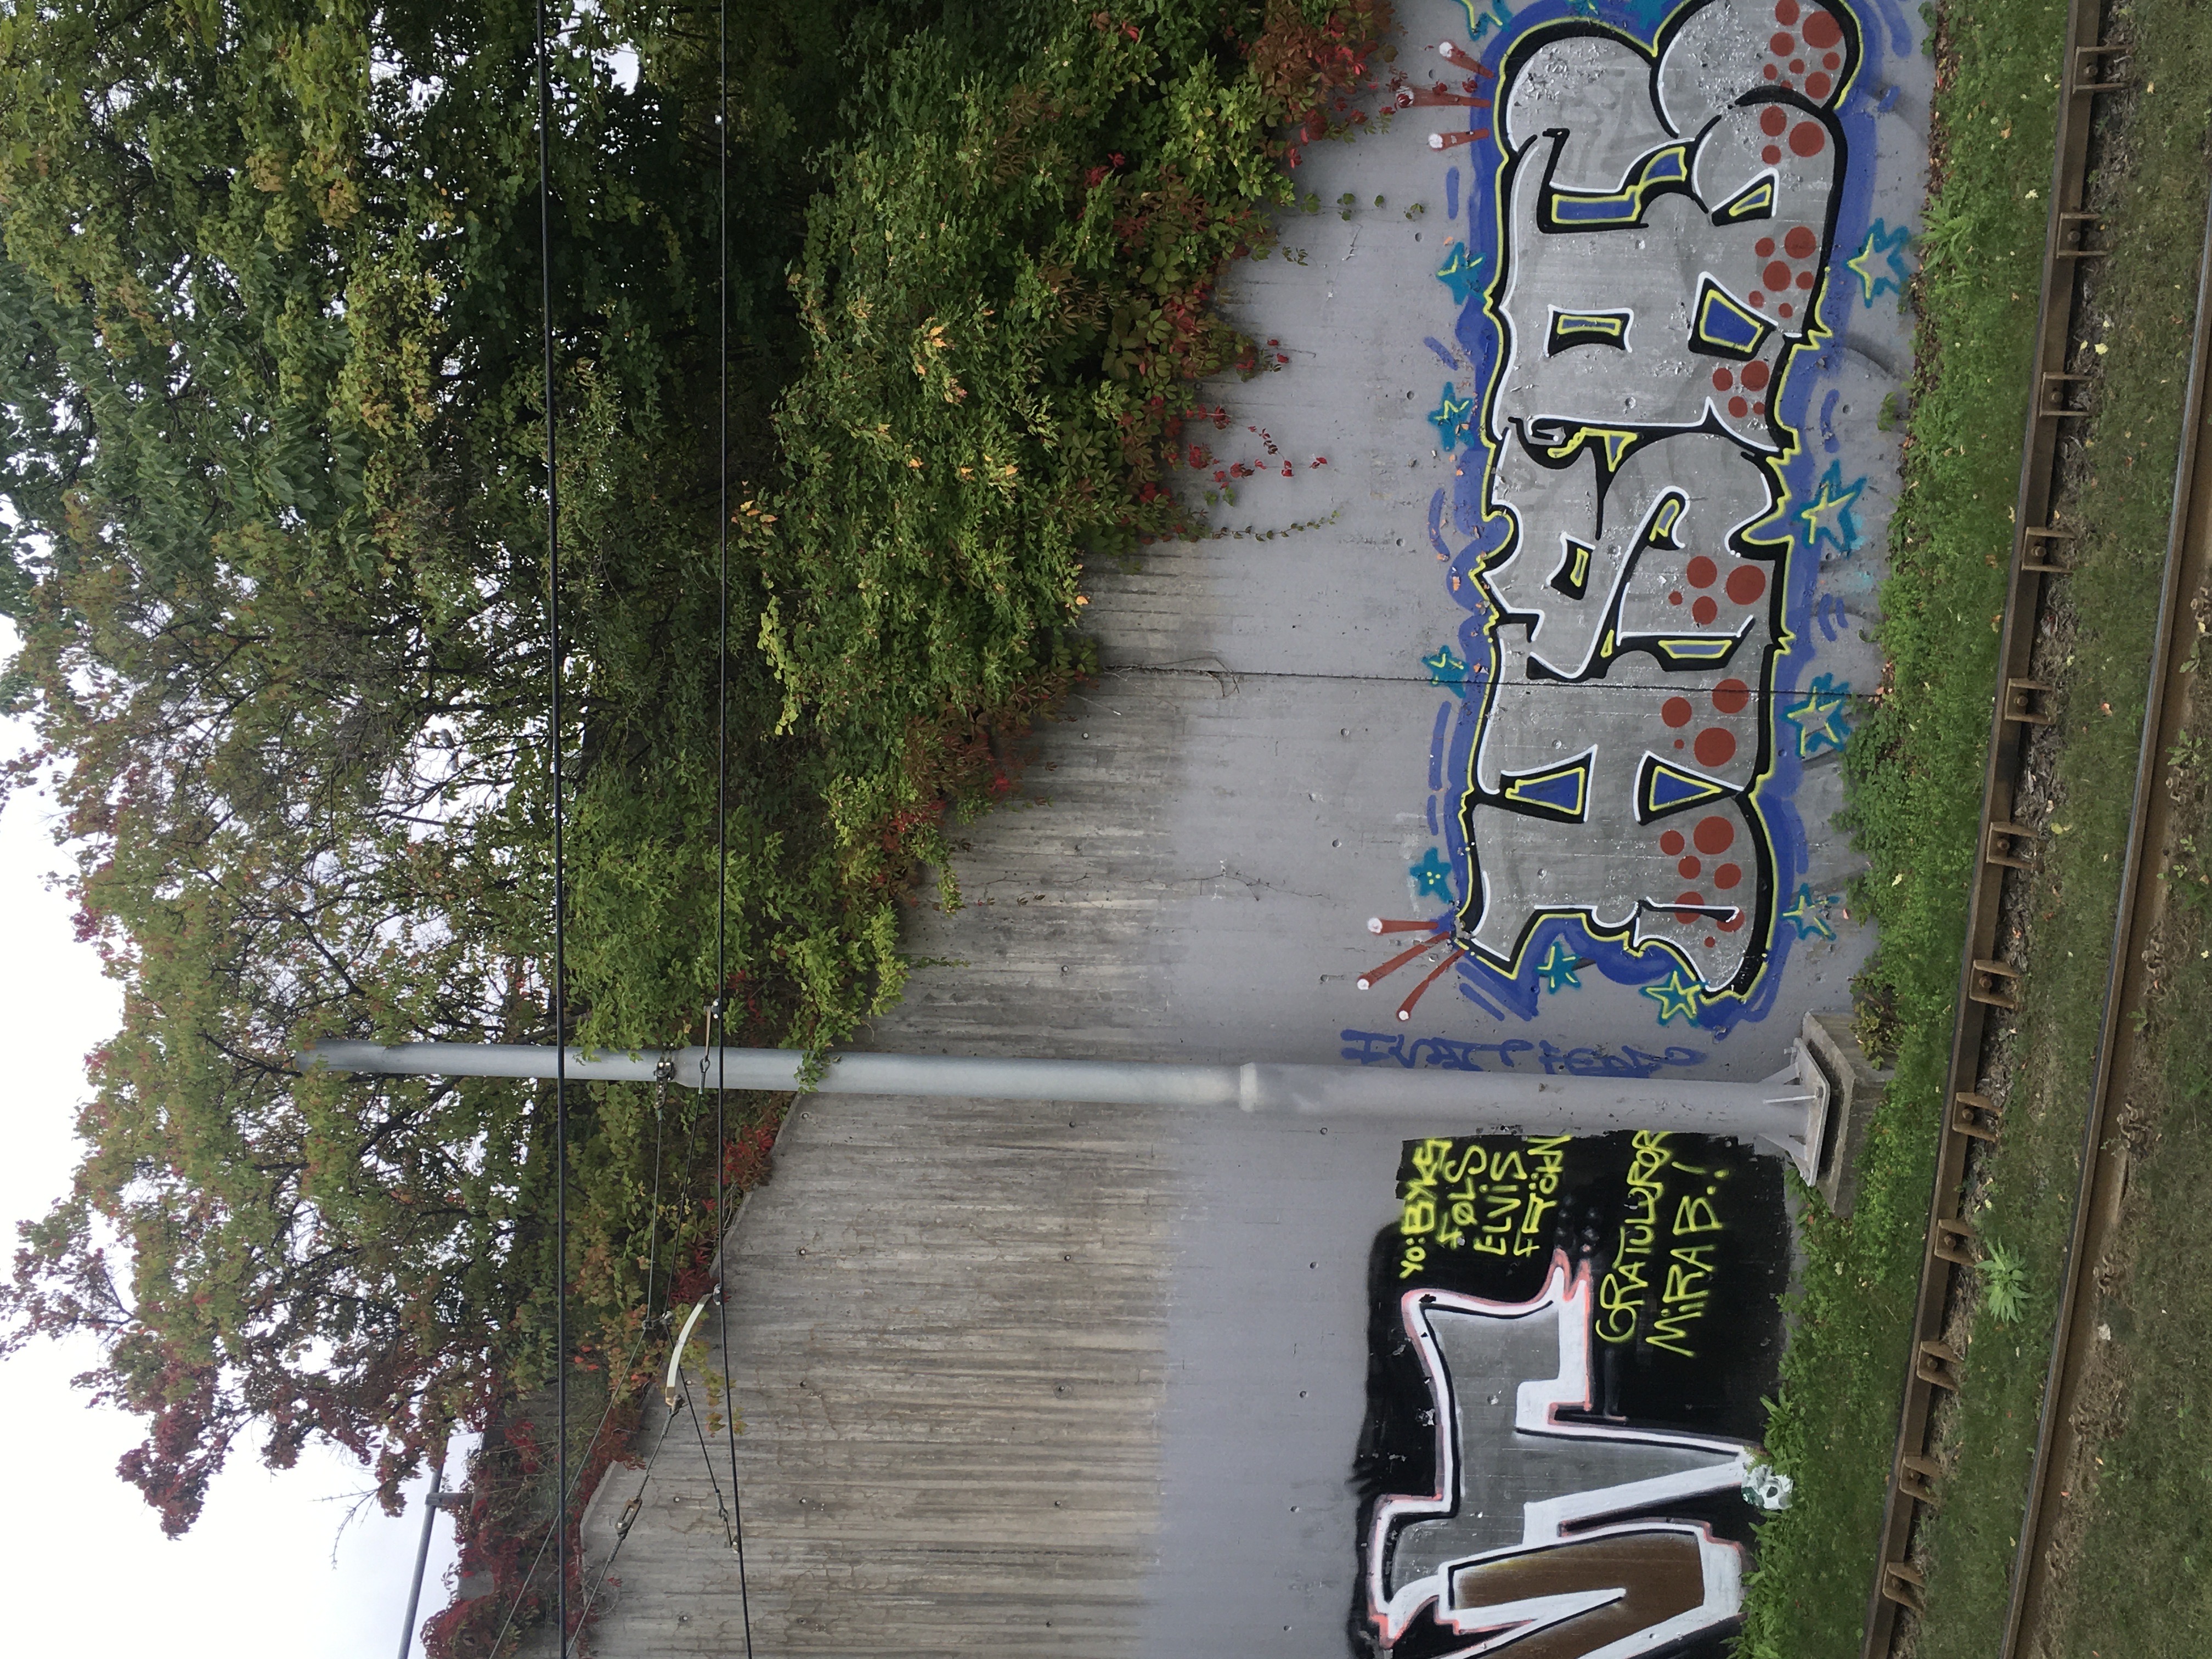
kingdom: Plantae
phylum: Tracheophyta
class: Magnoliopsida
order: Vitales
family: Vitaceae
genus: Parthenocissus
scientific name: Parthenocissus quinquefolia
